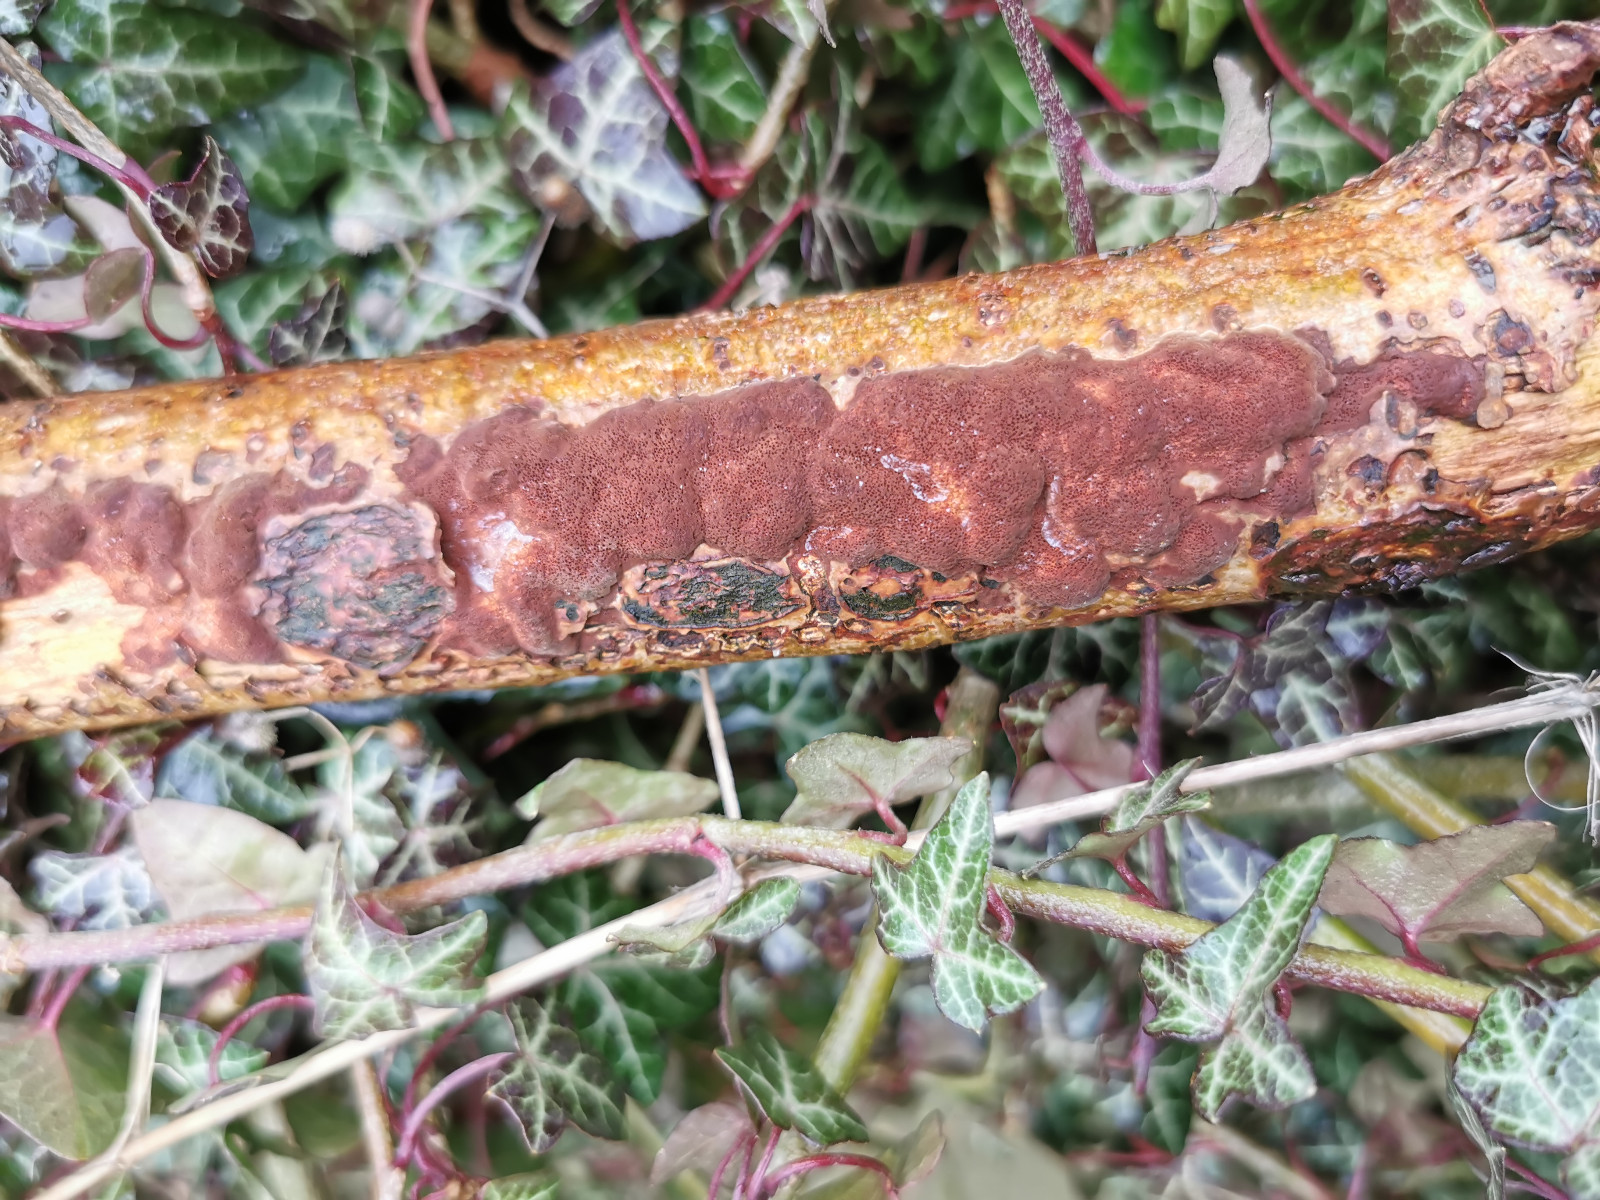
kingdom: Fungi
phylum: Basidiomycota
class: Agaricomycetes
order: Hymenochaetales
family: Hymenochaetaceae
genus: Fuscoporia
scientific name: Fuscoporia ferrea
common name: skorpe-ildporesvamp
